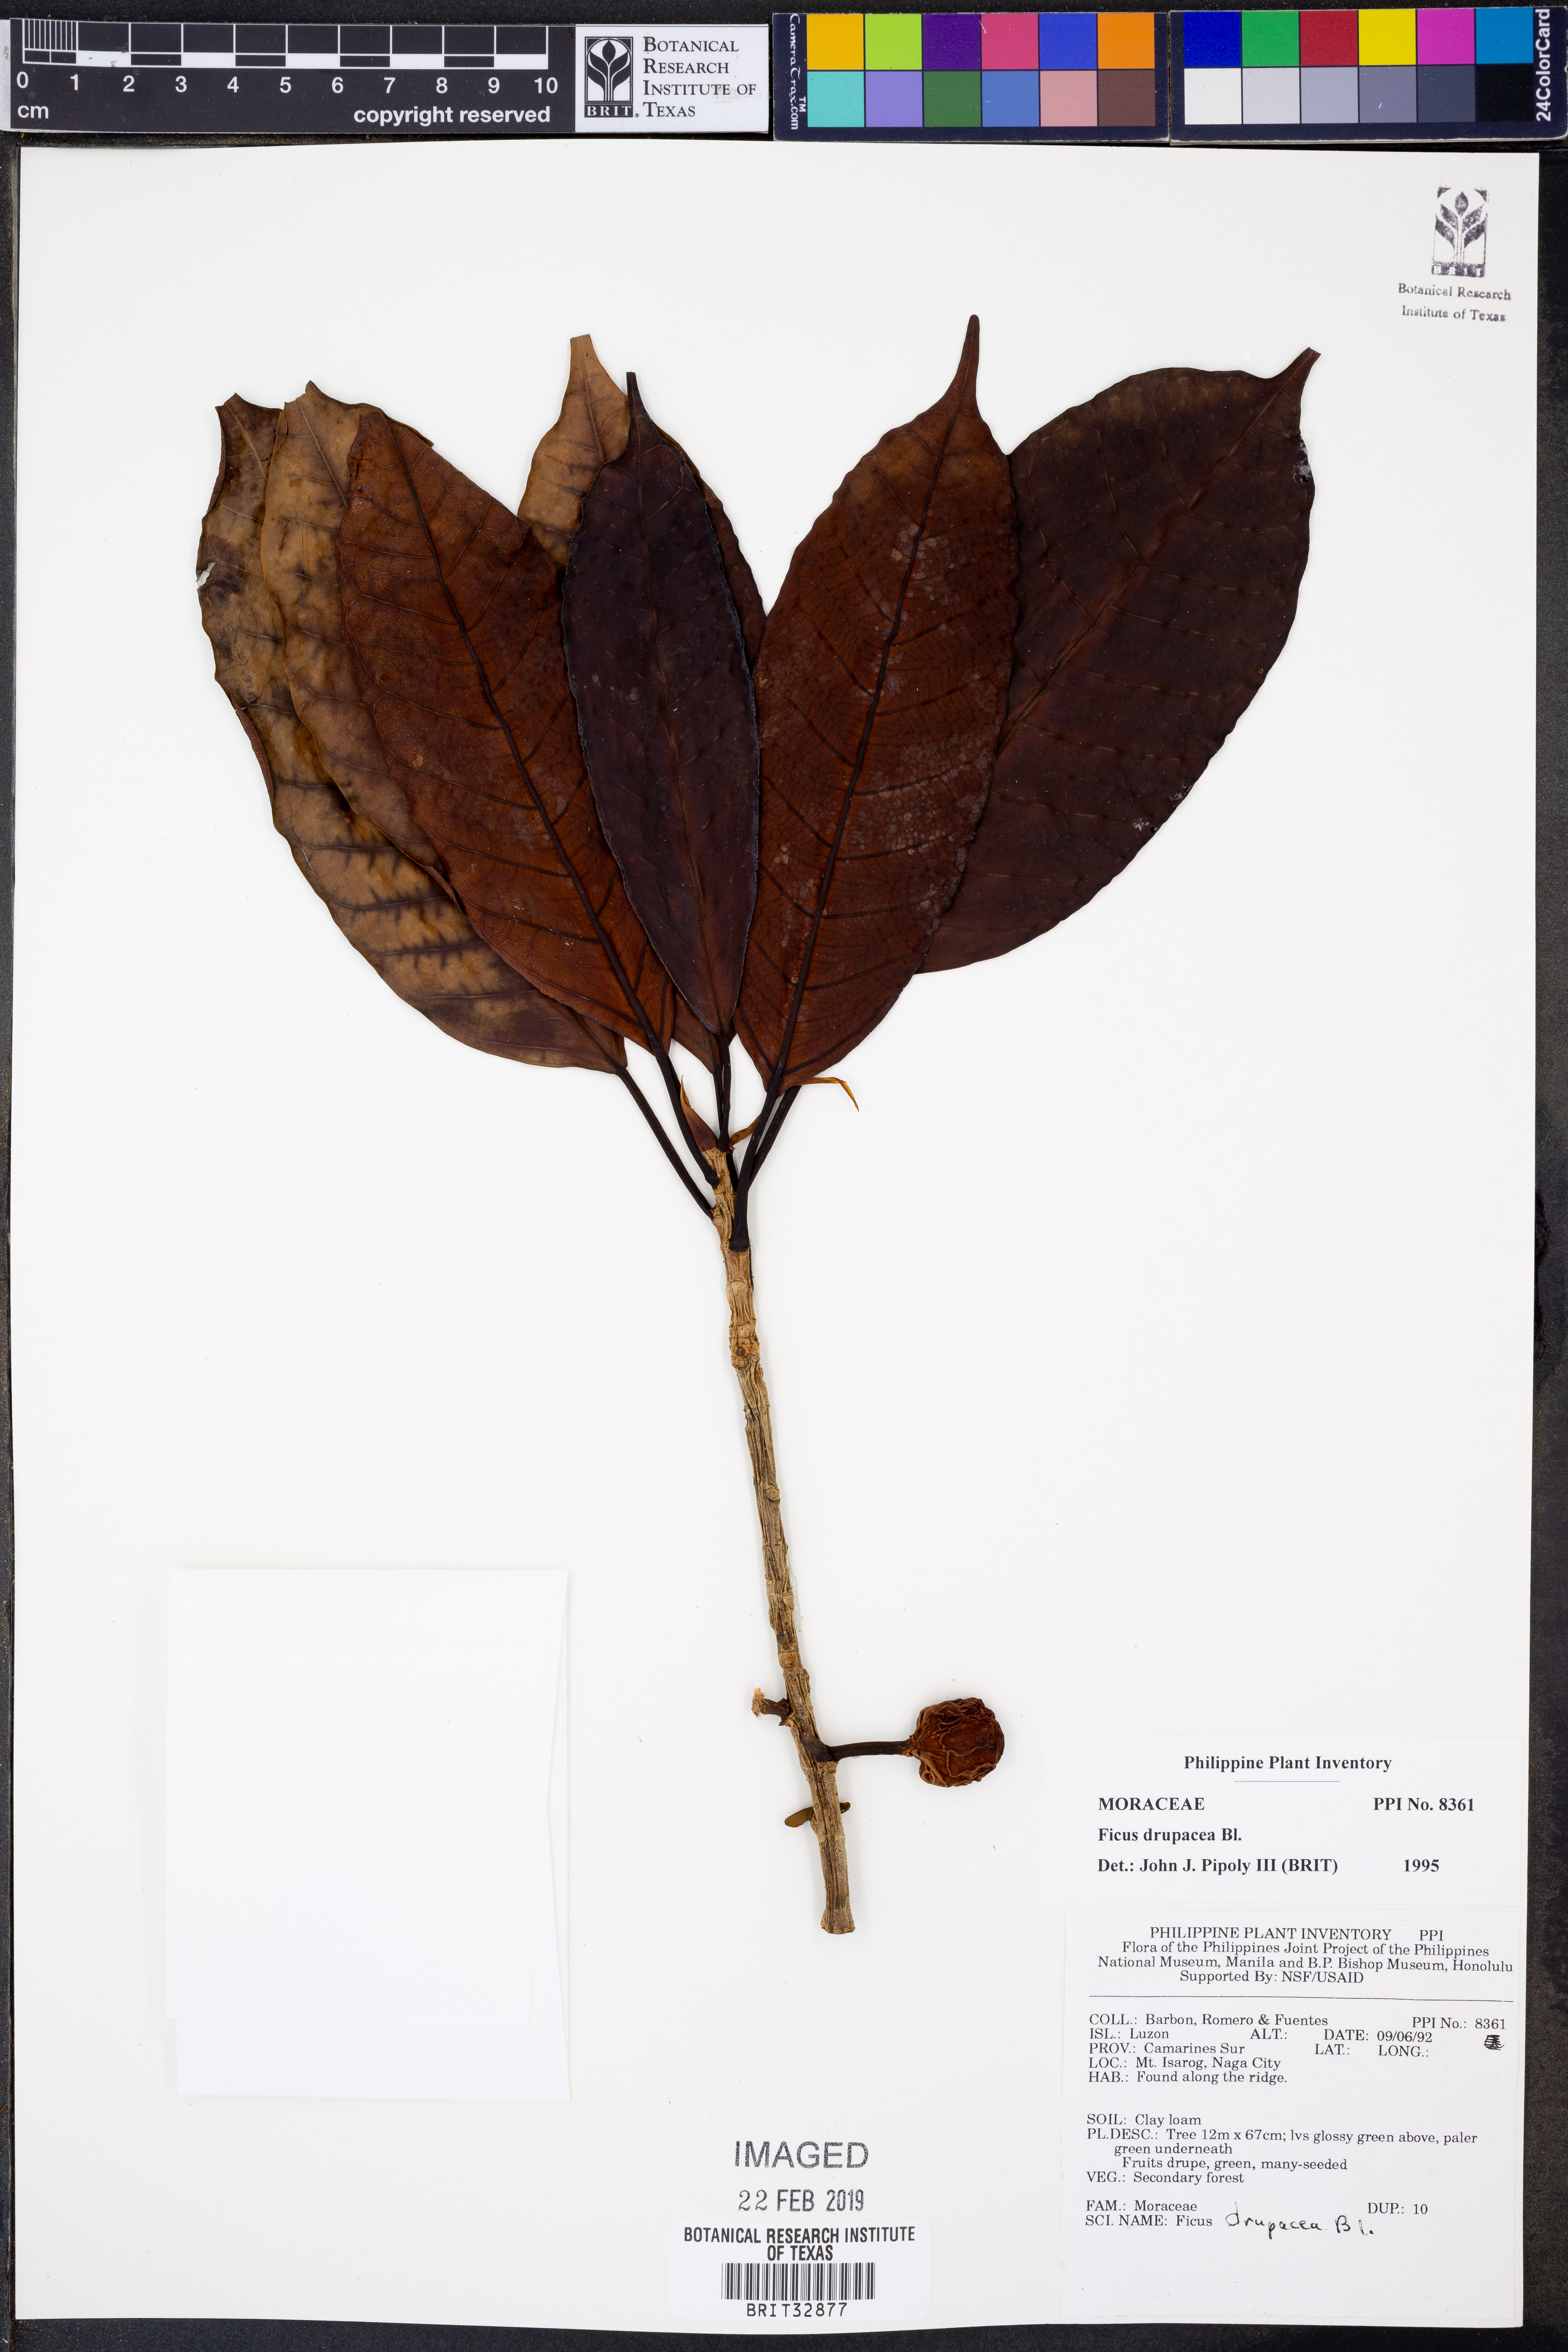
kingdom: Plantae
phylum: Tracheophyta
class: Magnoliopsida
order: Rosales
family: Moraceae
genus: Ficus
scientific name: Ficus drupacea
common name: Drupe fig
